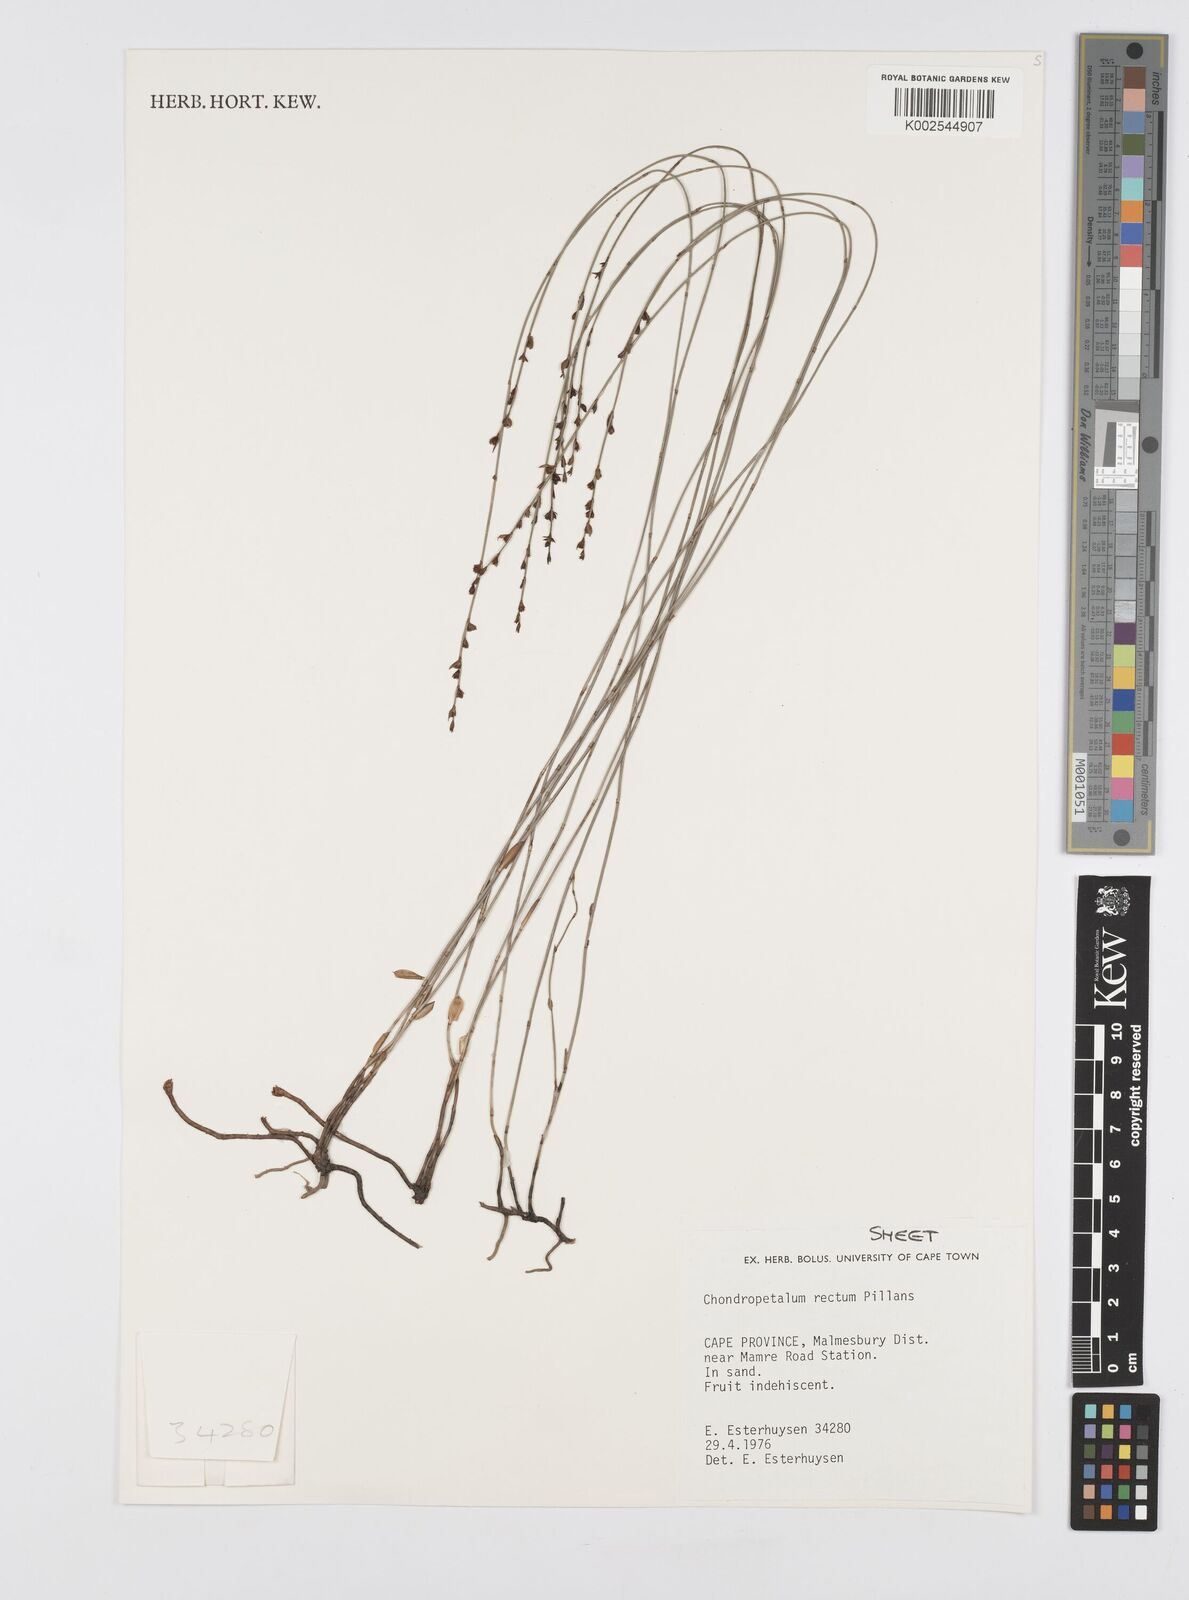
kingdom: Plantae
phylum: Tracheophyta
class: Liliopsida
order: Poales
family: Restionaceae
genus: Elegia
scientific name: Elegia recta
